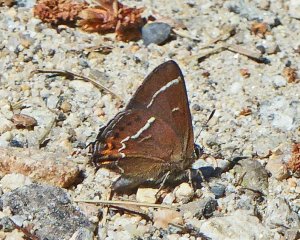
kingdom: Animalia
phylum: Arthropoda
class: Insecta
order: Lepidoptera
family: Lycaenidae
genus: Mitoura
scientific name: Mitoura spinetorum
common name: Thicket Hairstreak
